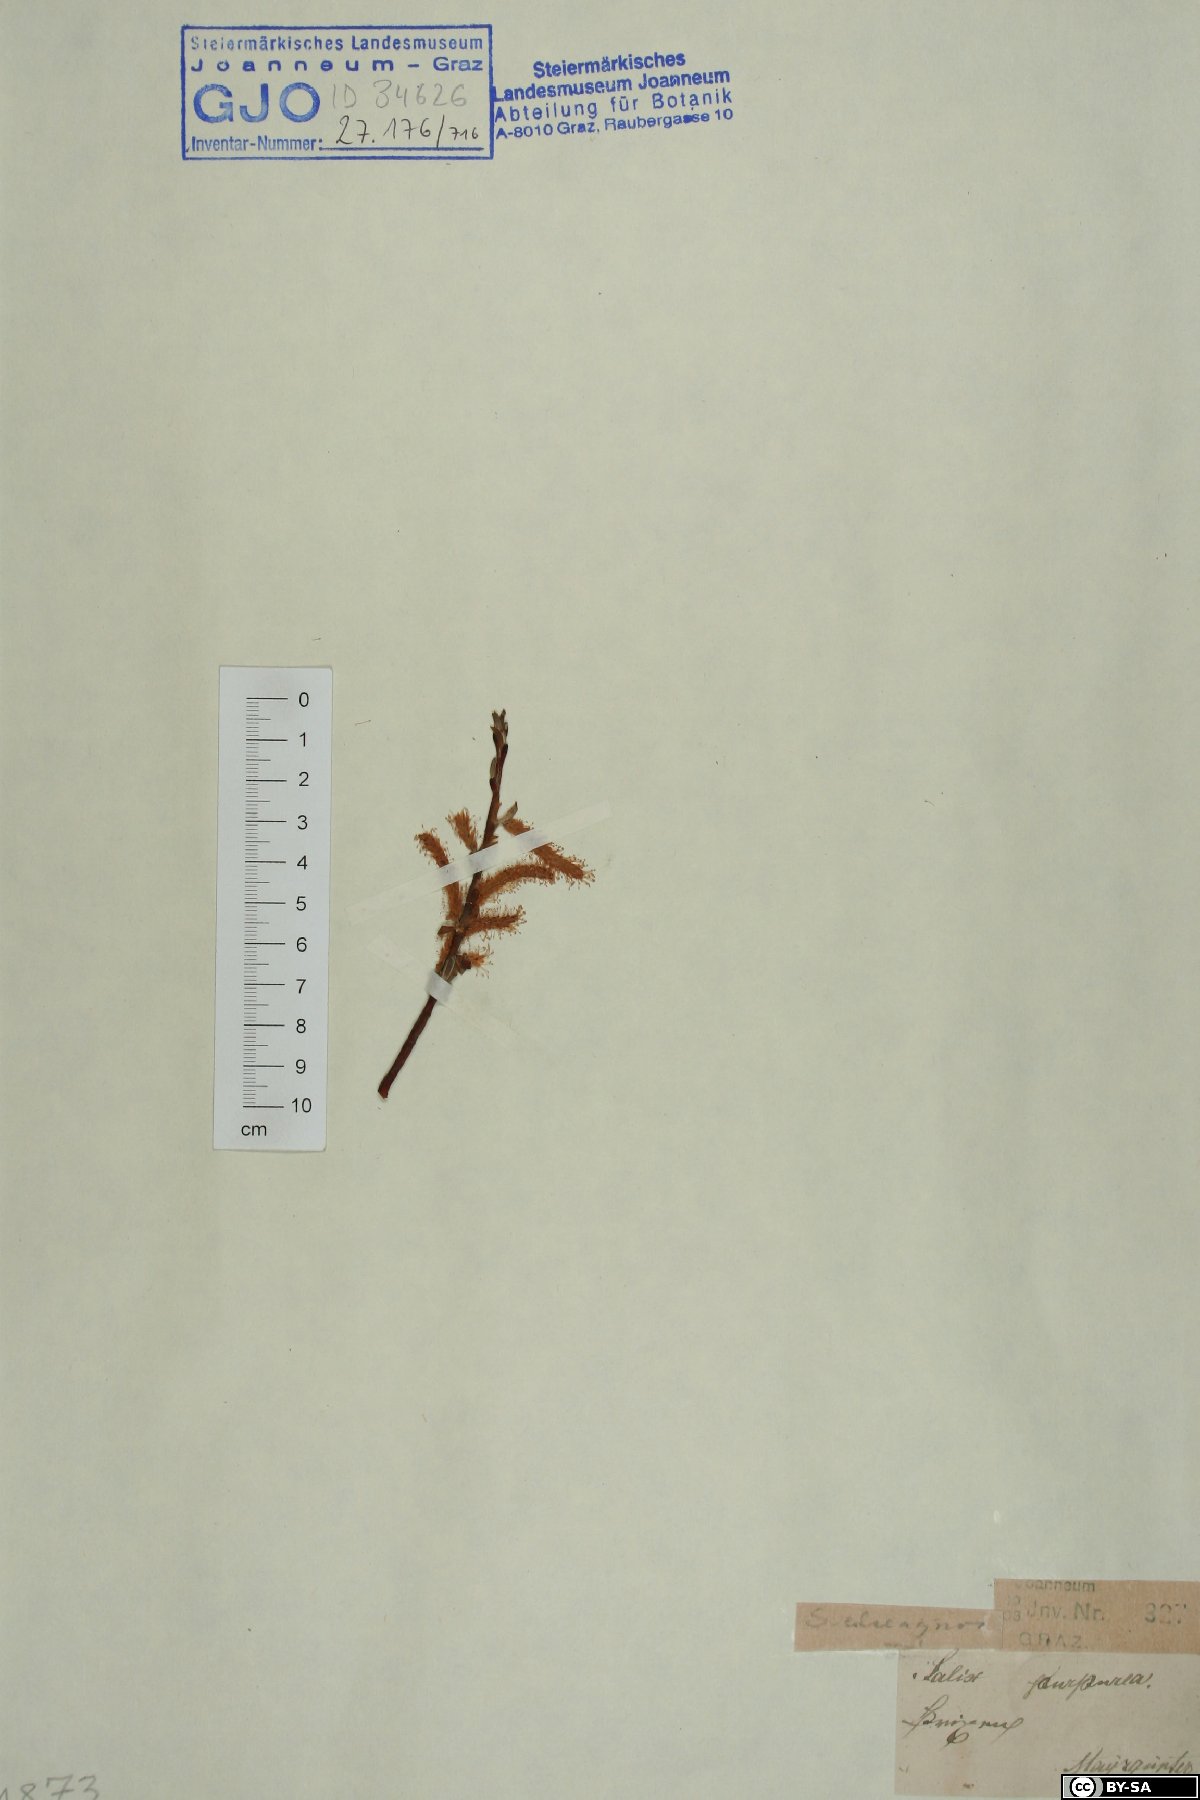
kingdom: Plantae
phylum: Tracheophyta
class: Magnoliopsida
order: Malpighiales
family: Salicaceae
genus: Salix
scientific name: Salix eleagnos
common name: Elaeagnus willow
